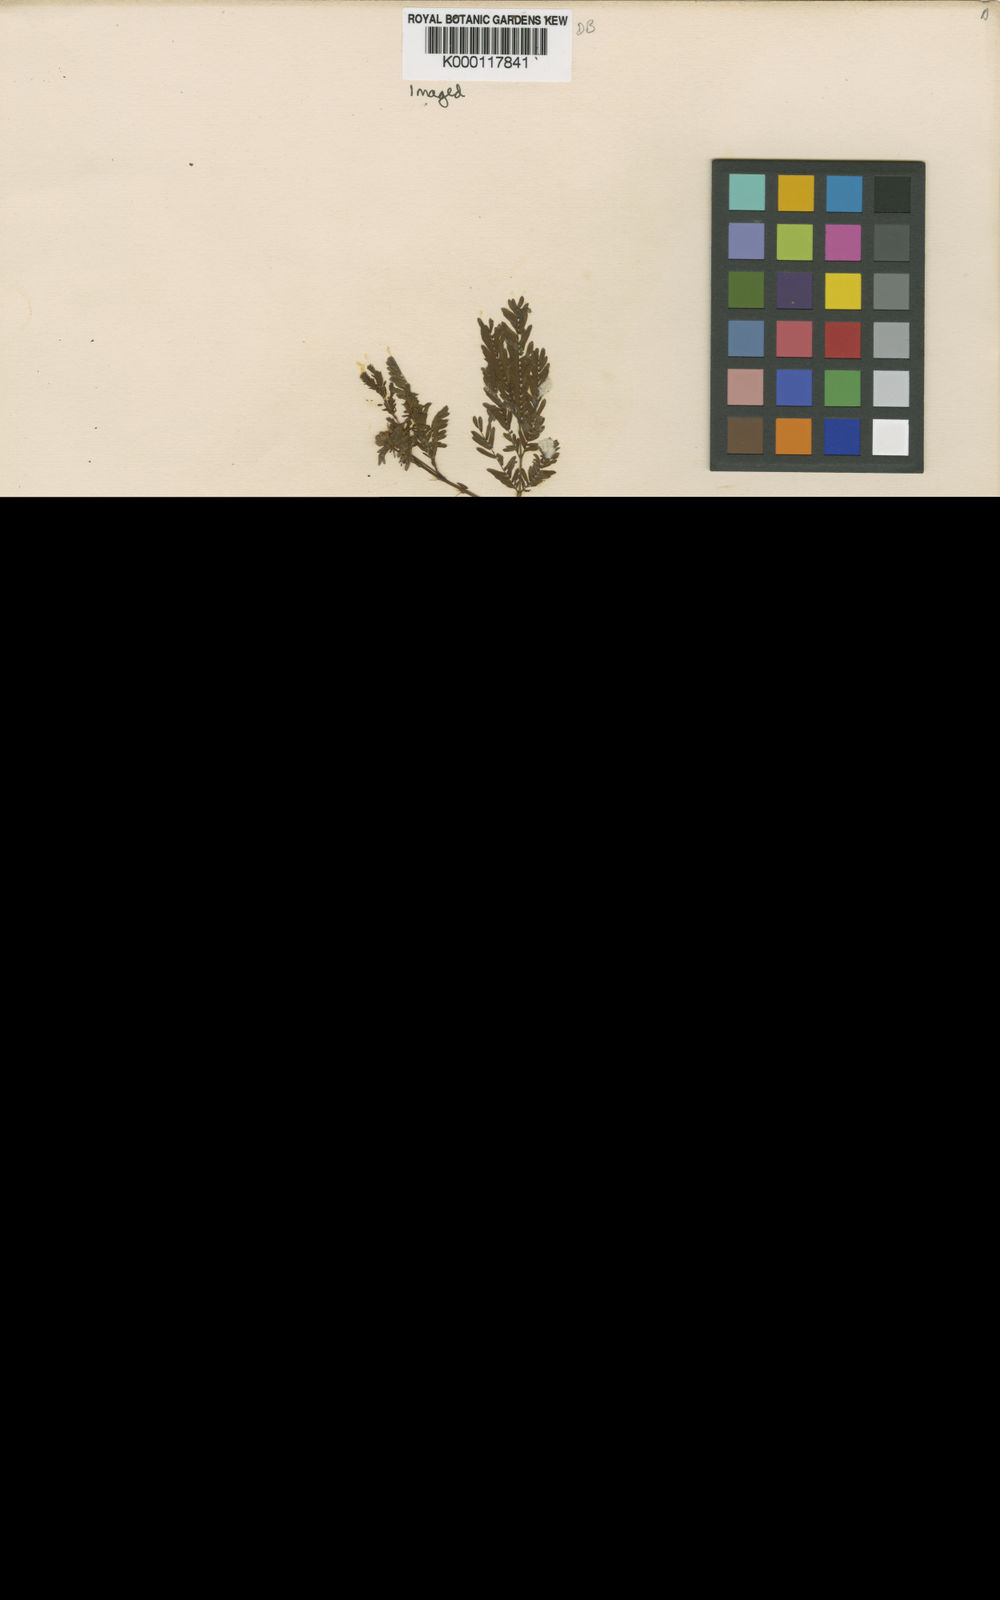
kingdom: Plantae
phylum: Tracheophyta
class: Magnoliopsida
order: Fabales
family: Fabaceae
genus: Desmanthus
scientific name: Desmanthus leptophyllus
